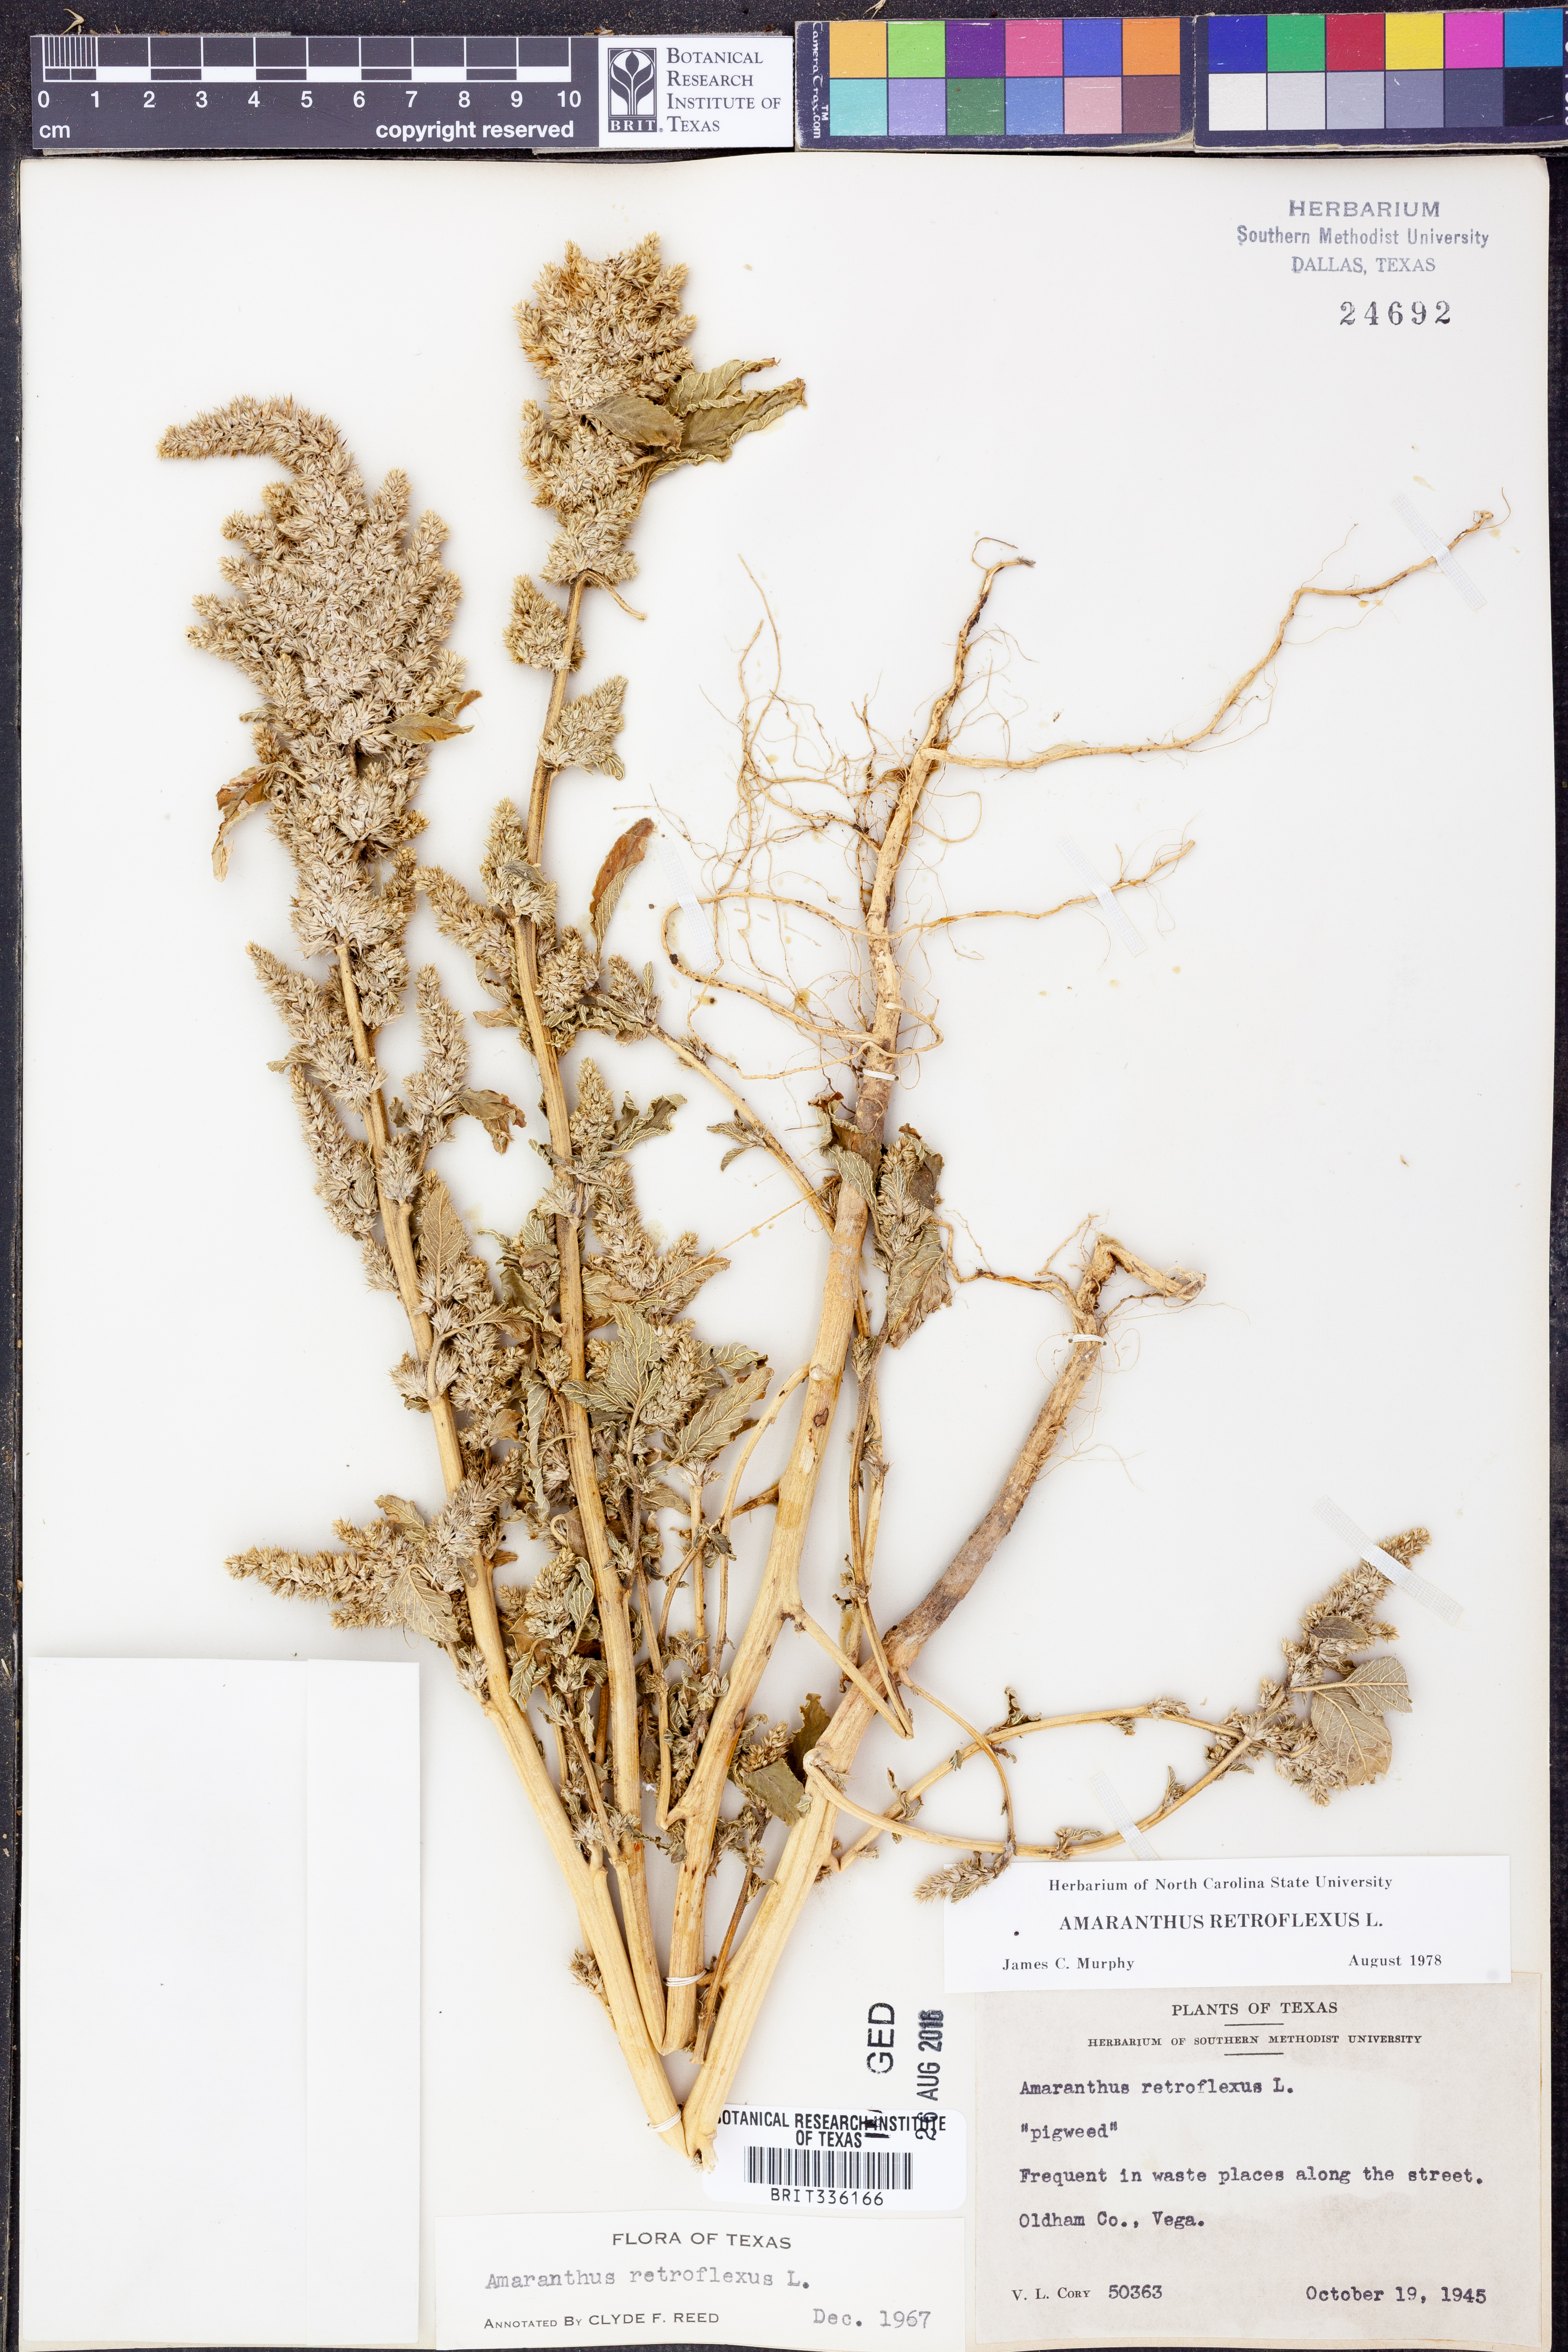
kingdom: Plantae
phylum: Tracheophyta
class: Magnoliopsida
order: Caryophyllales
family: Amaranthaceae
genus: Amaranthus
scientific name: Amaranthus retroflexus
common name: Redroot amaranth
